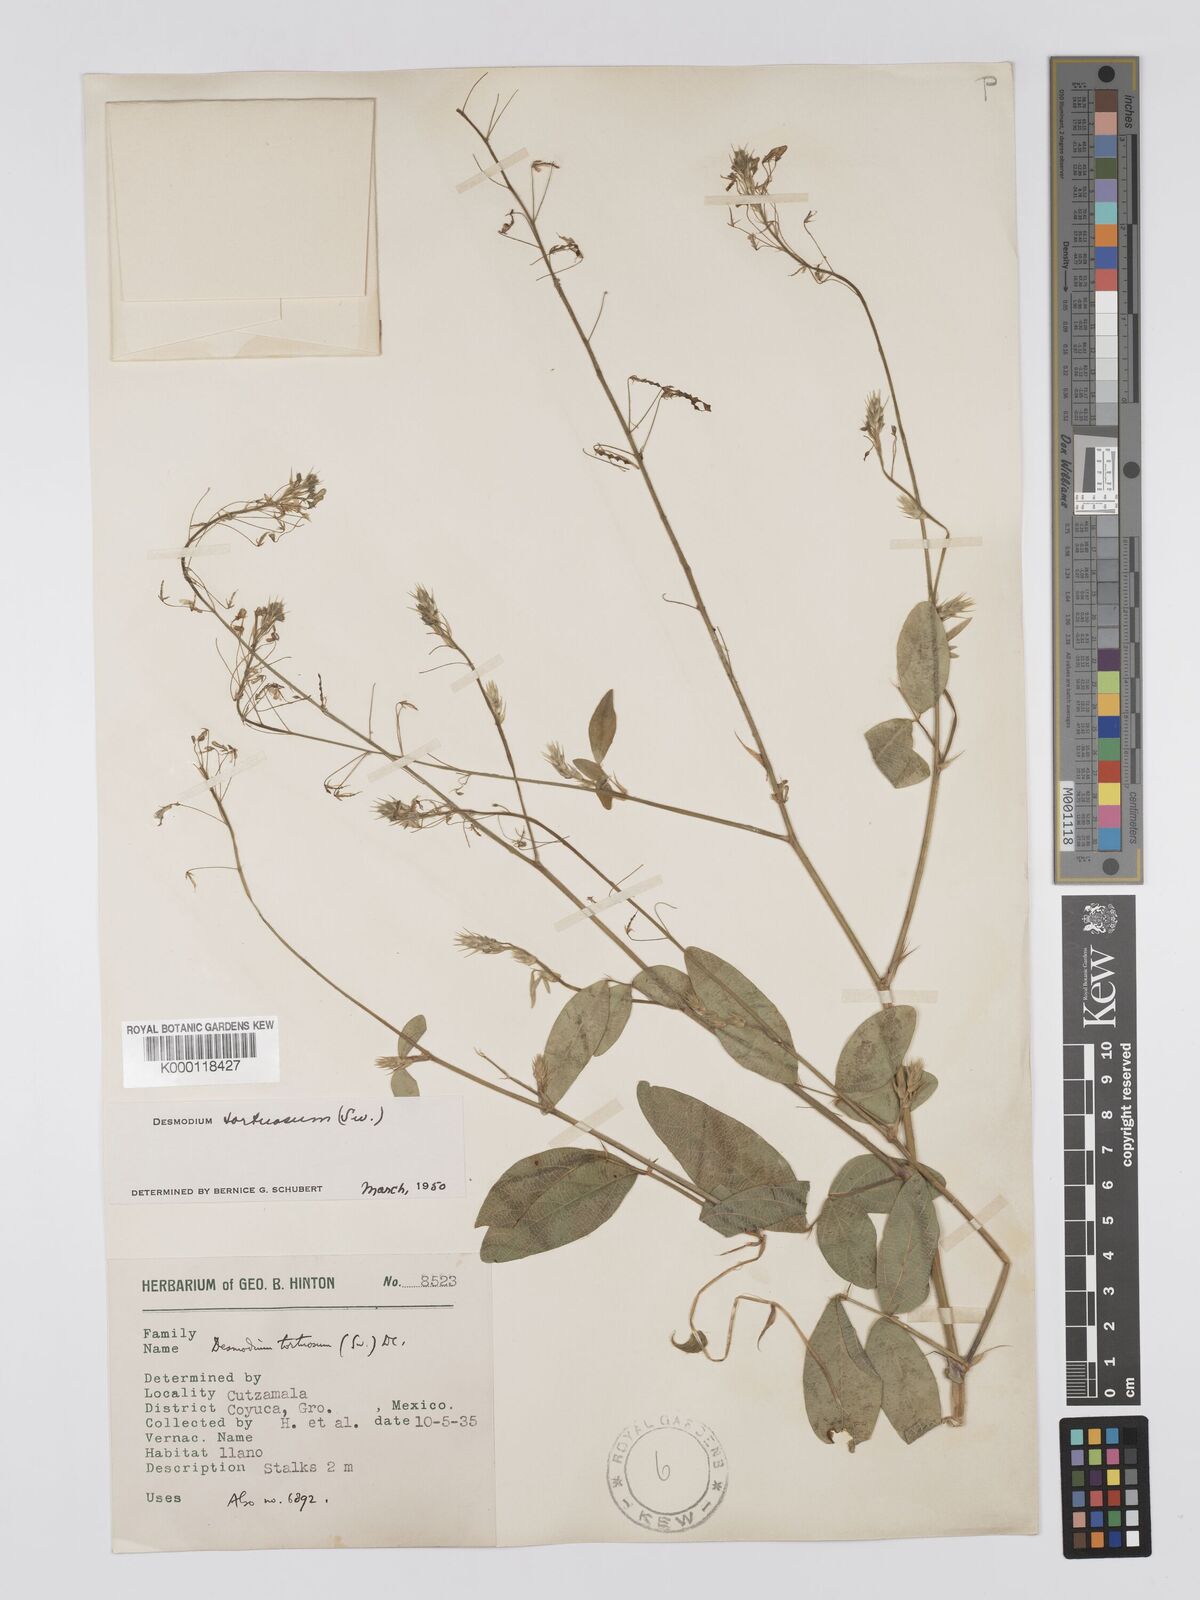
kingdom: Plantae
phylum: Tracheophyta
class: Magnoliopsida
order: Fabales
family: Fabaceae
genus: Desmodium
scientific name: Desmodium tortuosum
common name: Dixie ticktrefoil
